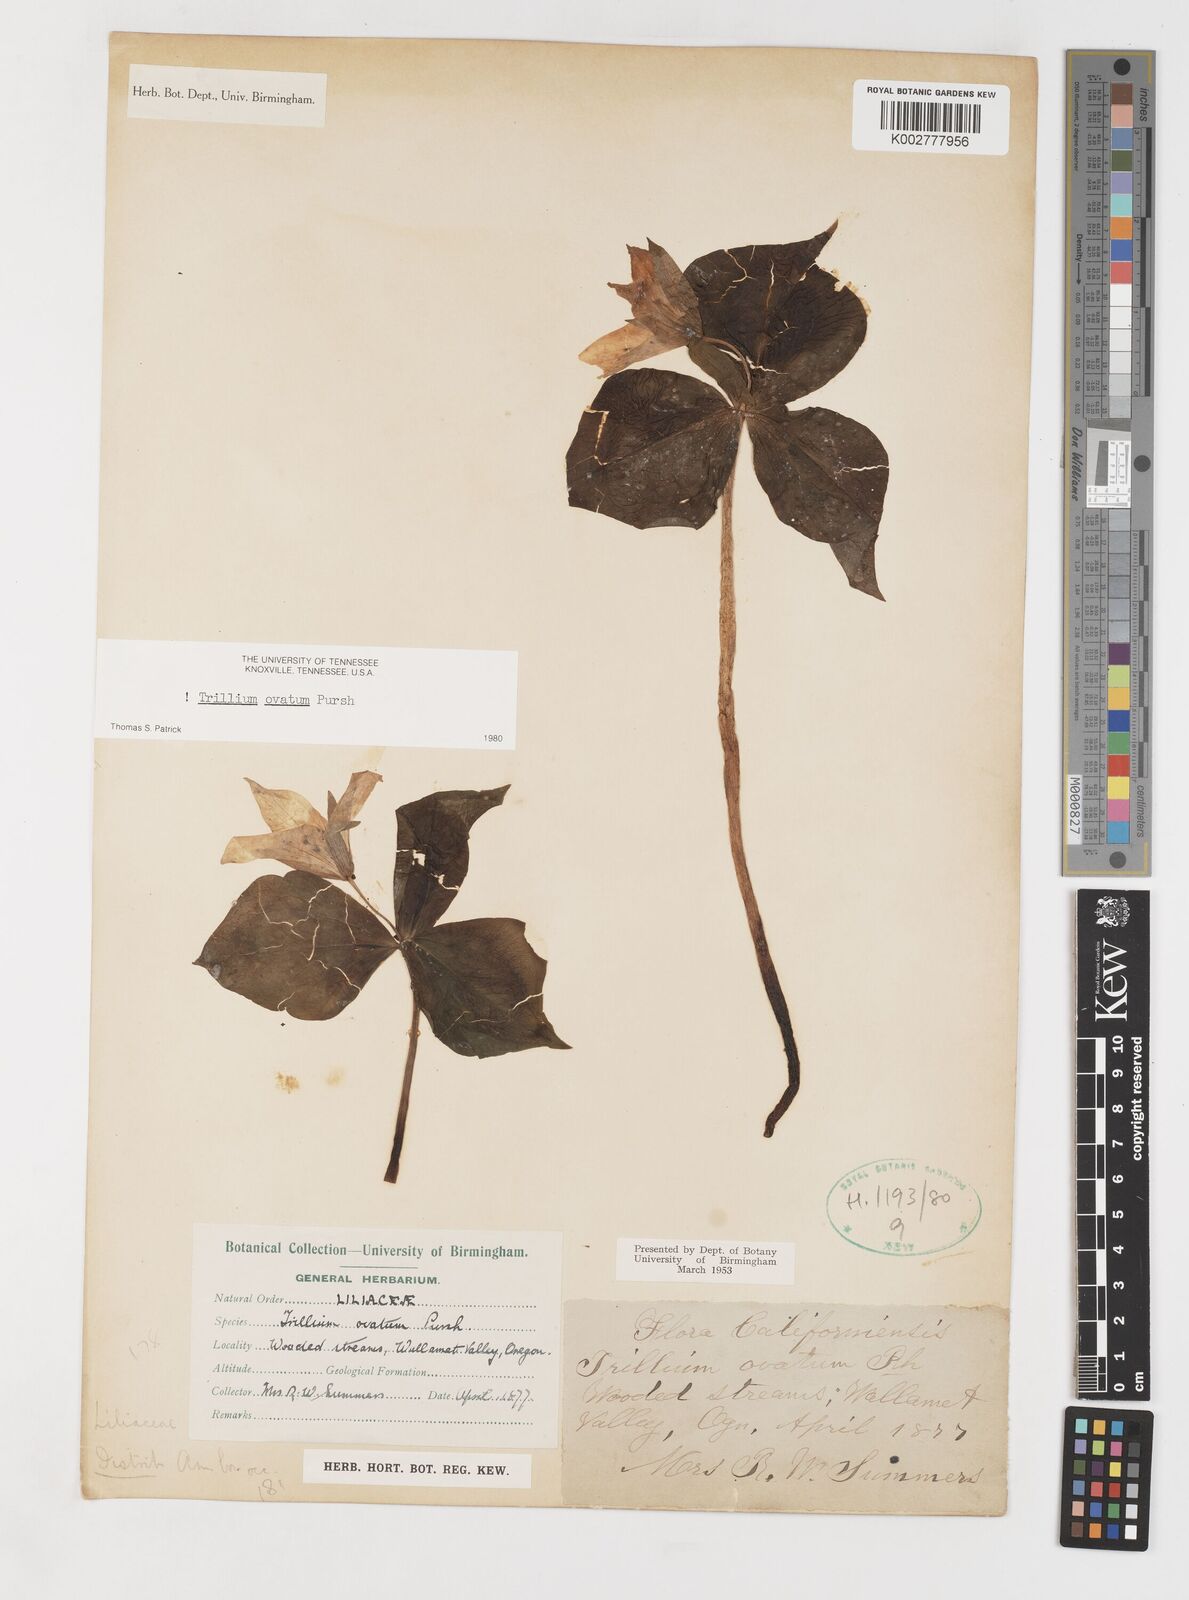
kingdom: Plantae
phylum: Tracheophyta
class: Liliopsida
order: Liliales
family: Melanthiaceae
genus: Trillium
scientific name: Trillium ovatum
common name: Pacific trillium
